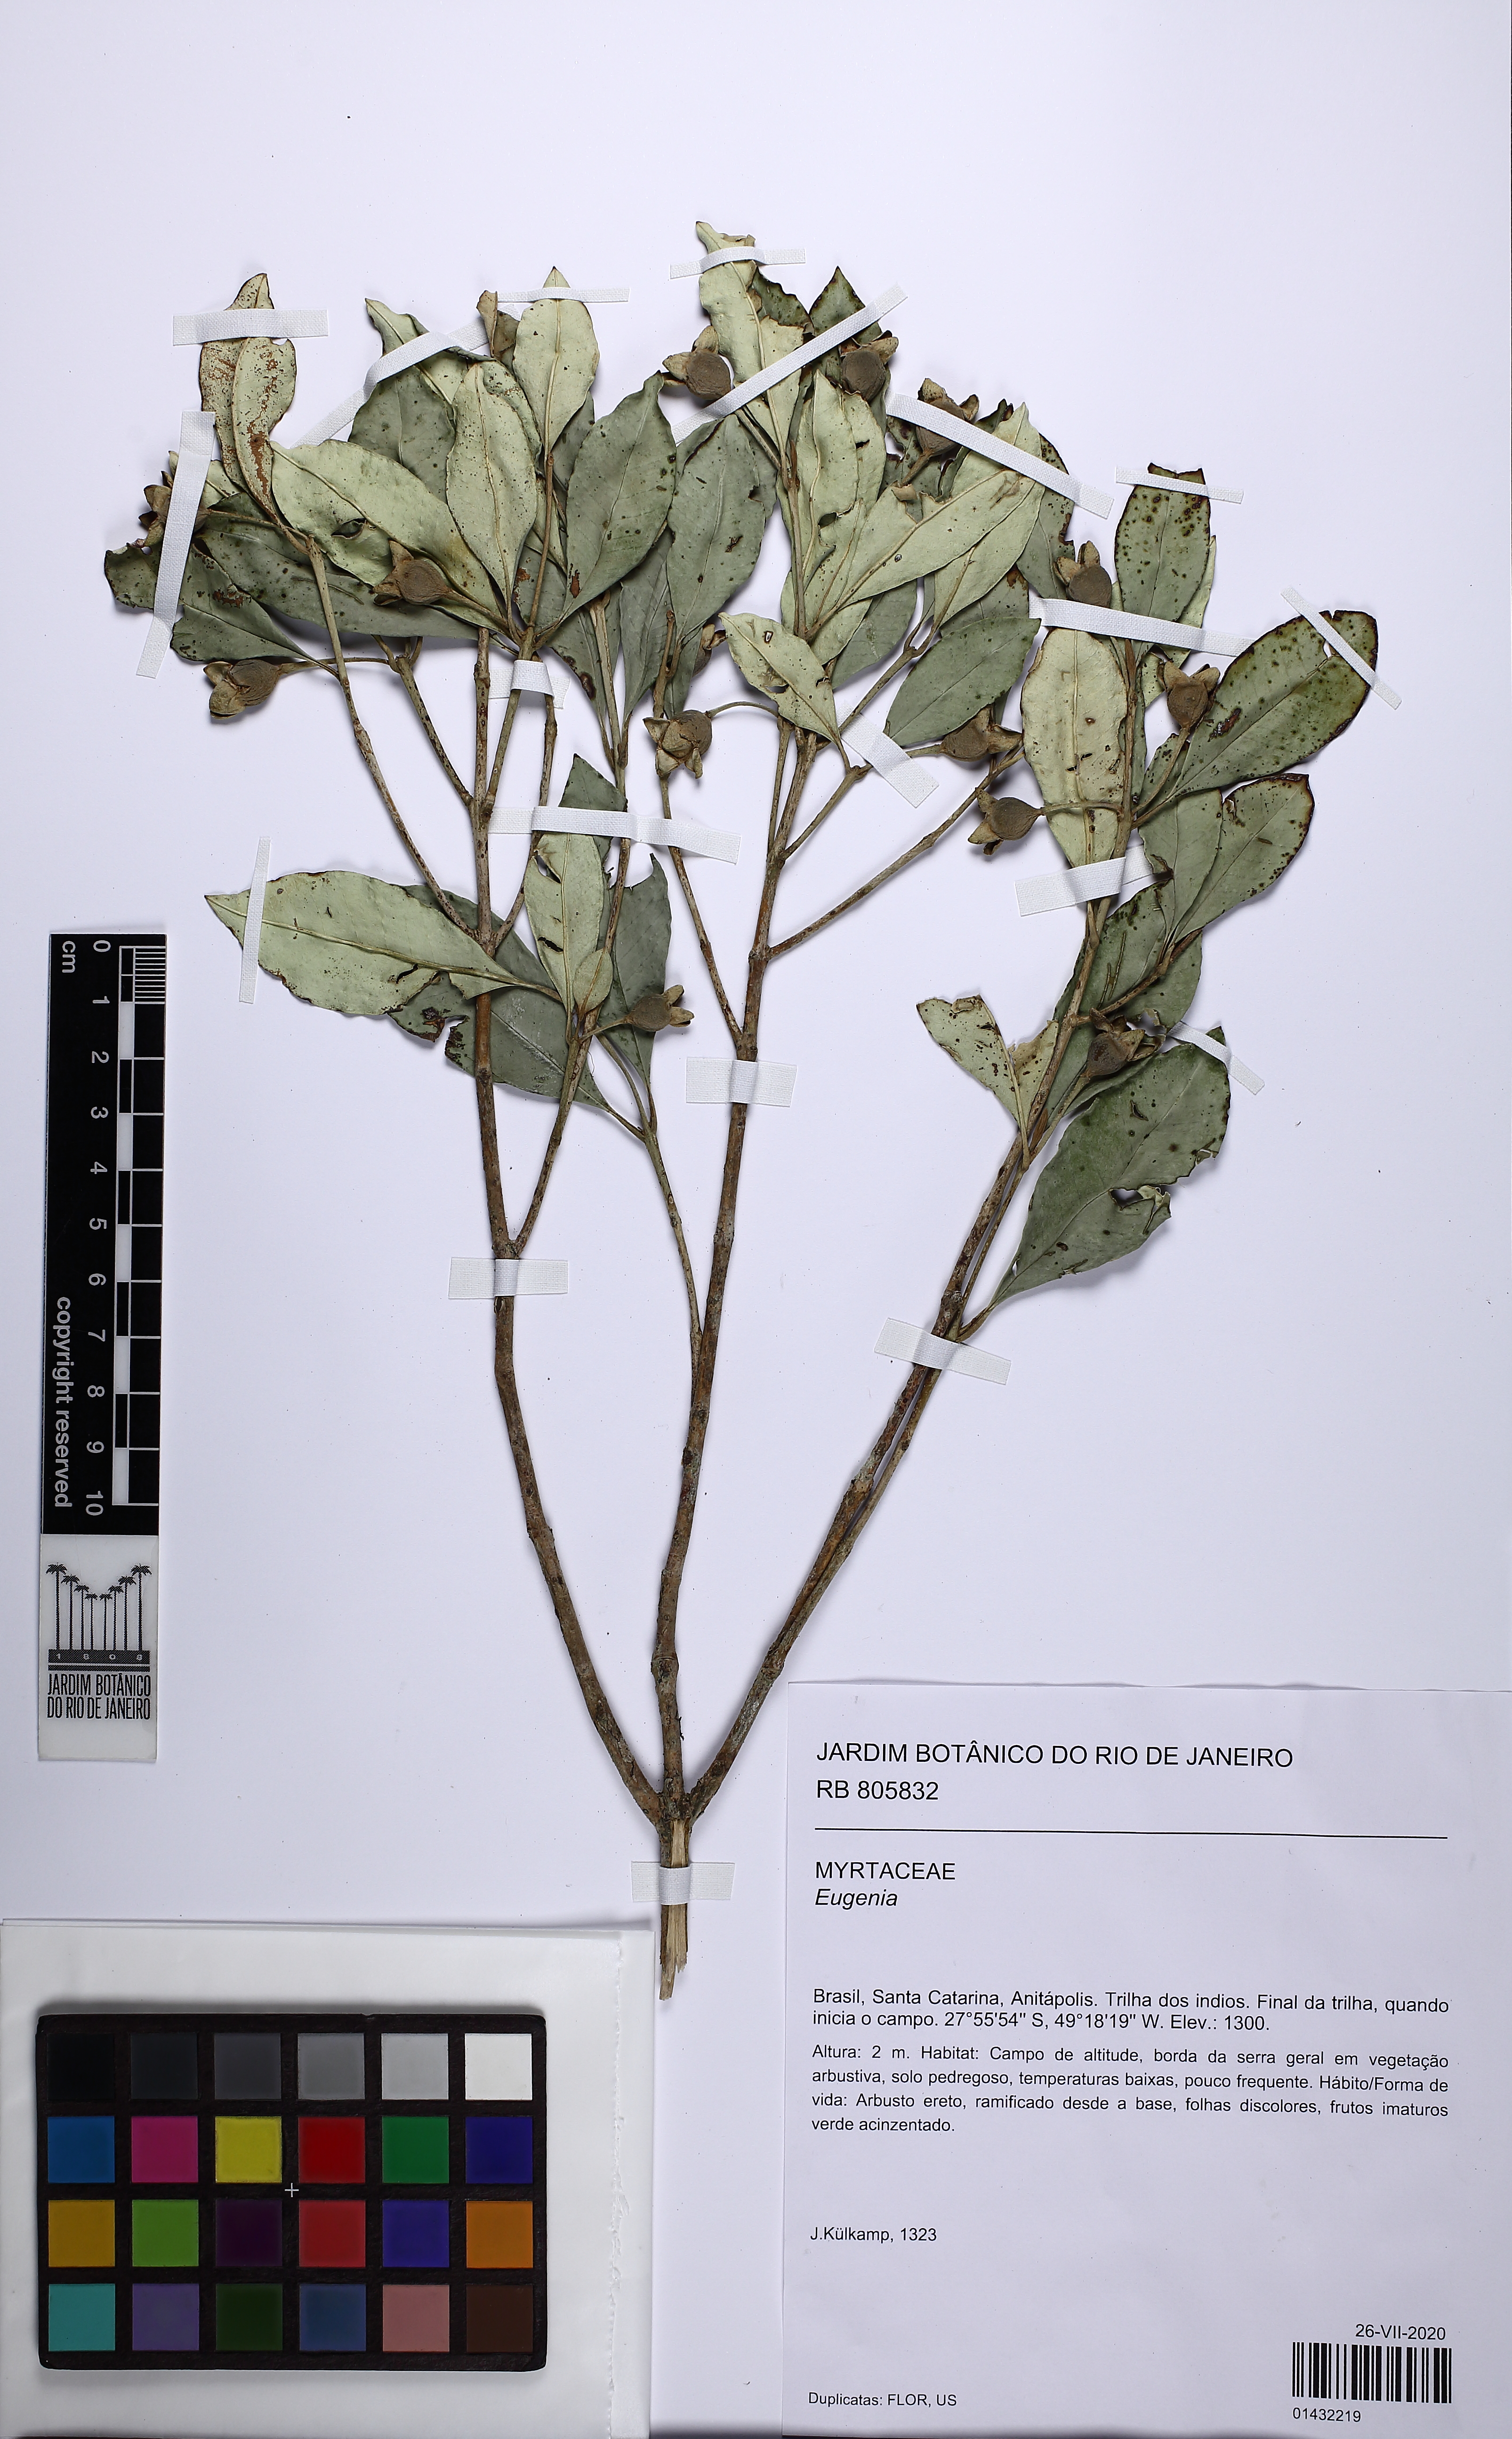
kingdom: Plantae
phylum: Tracheophyta
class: Magnoliopsida
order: Myrtales
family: Myrtaceae
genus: Myrceugenia
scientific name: Myrceugenia
